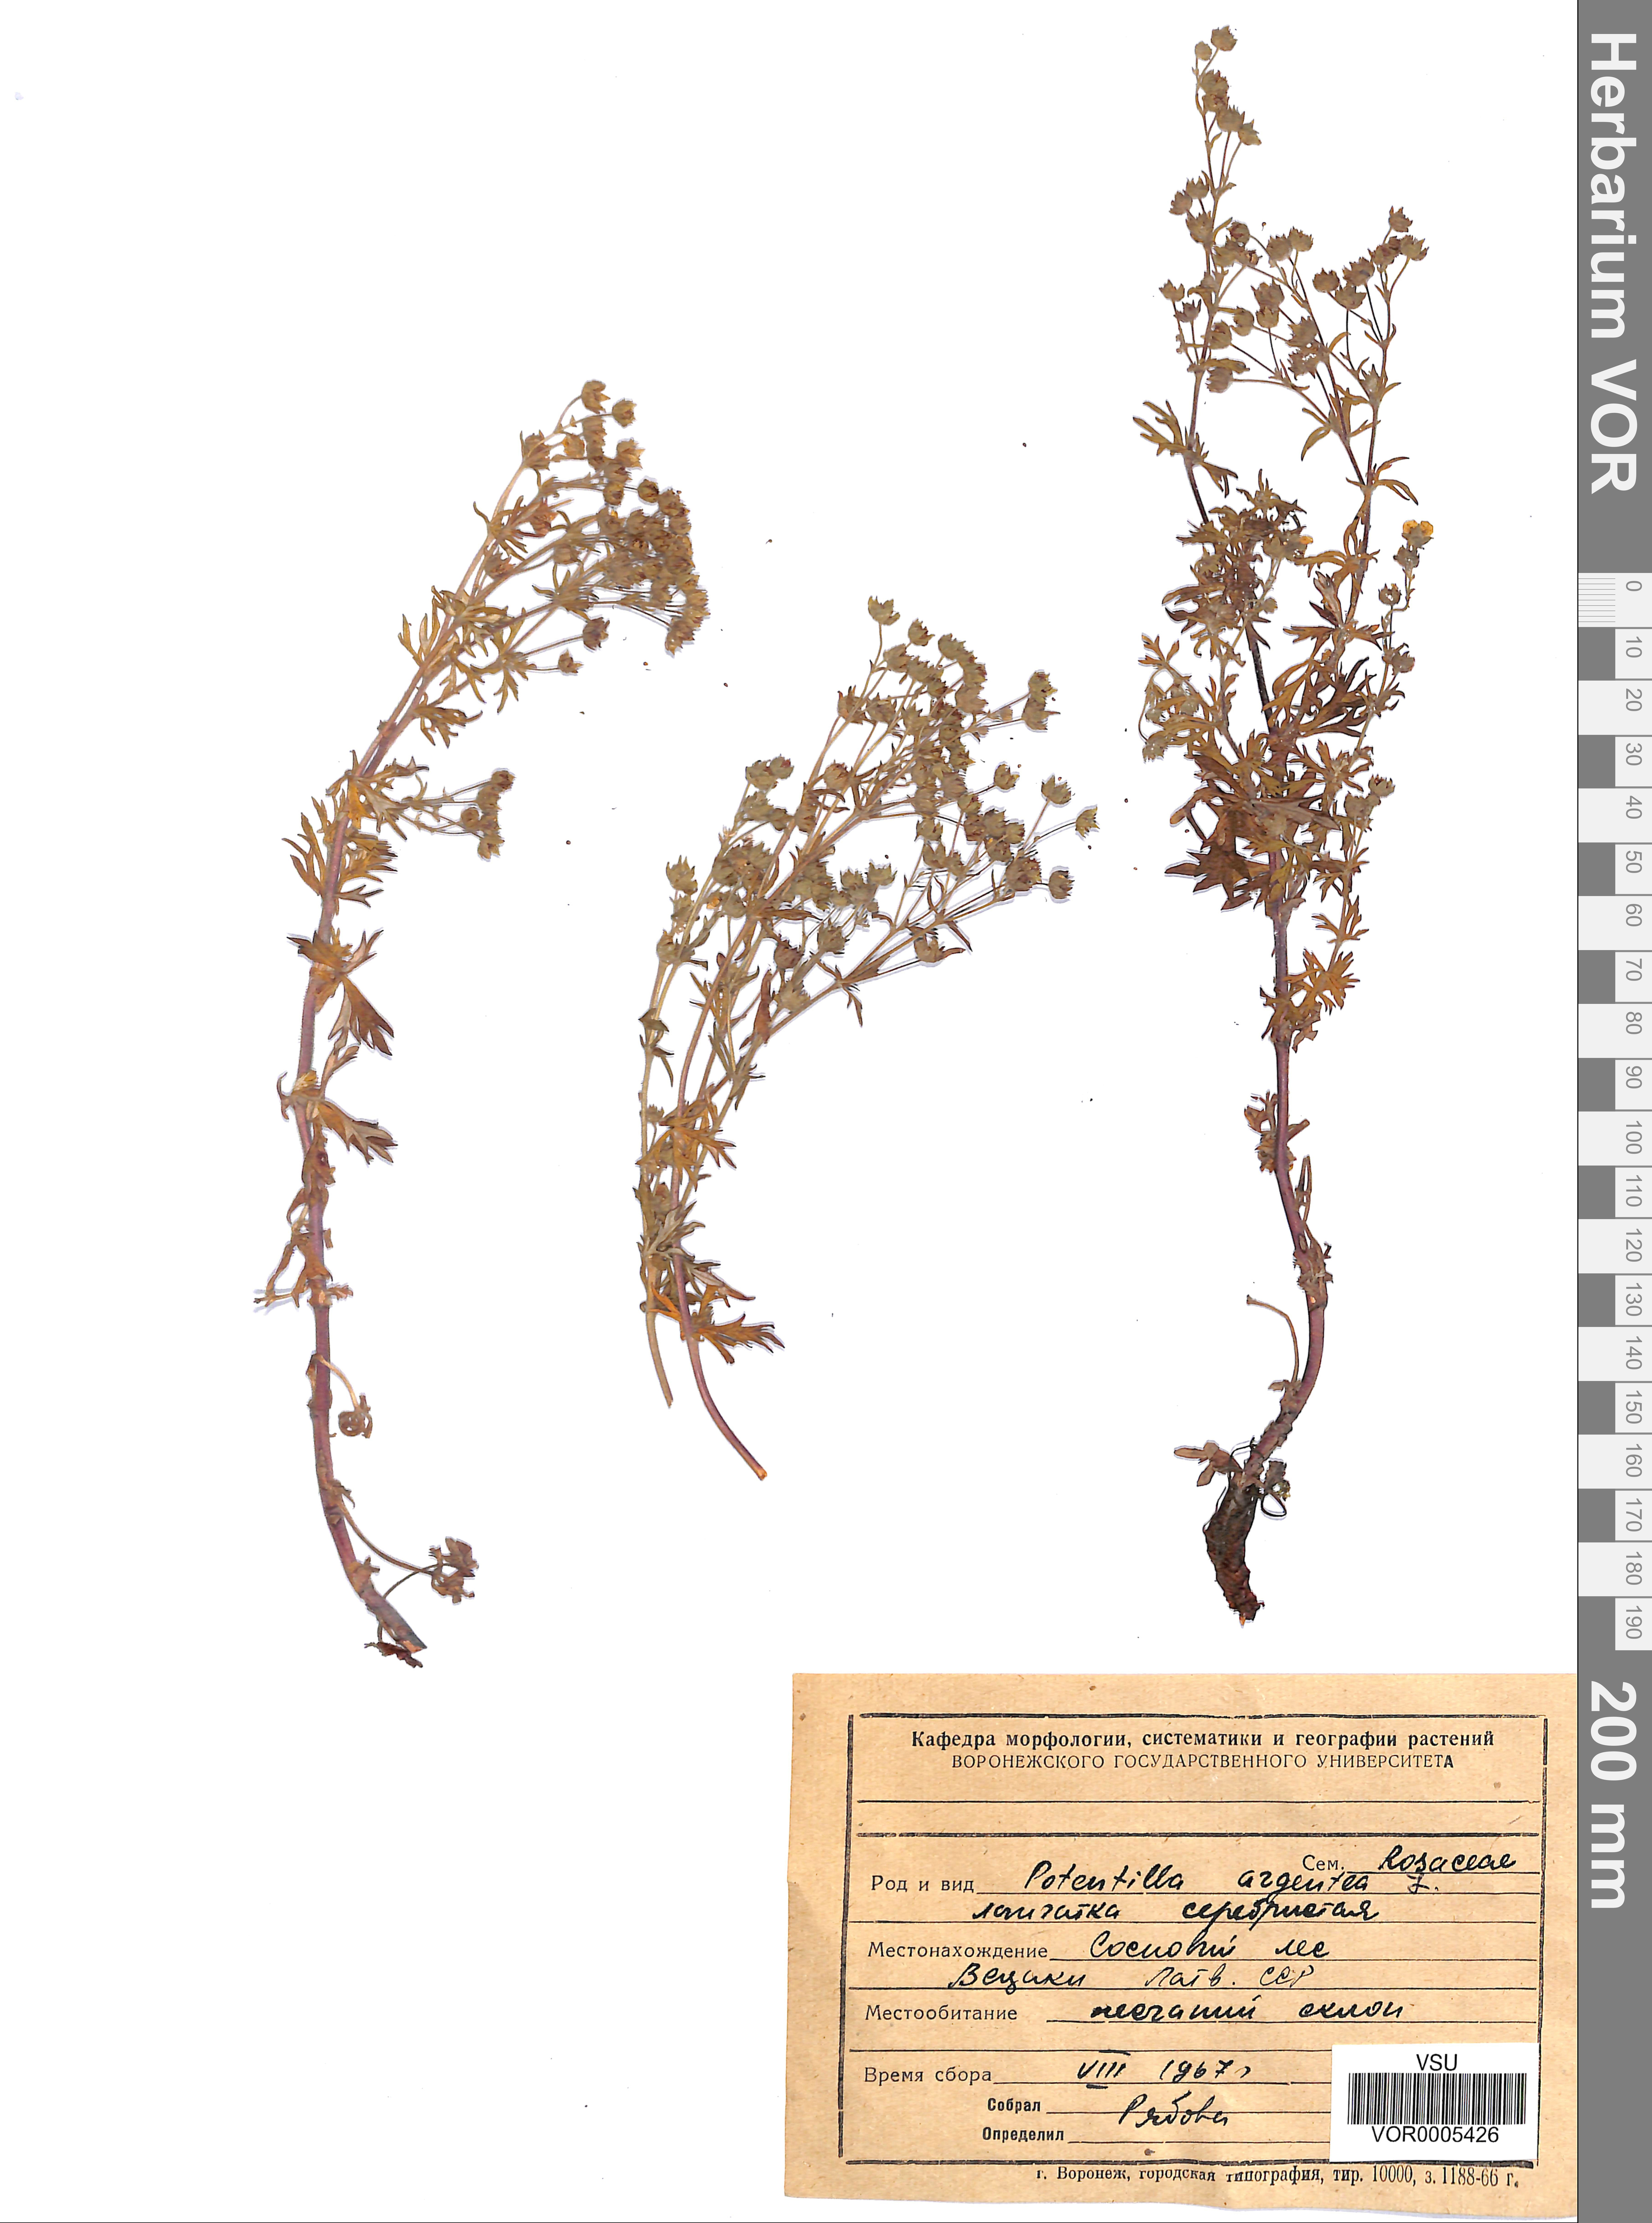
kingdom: Plantae
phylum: Tracheophyta
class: Magnoliopsida
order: Rosales
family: Rosaceae
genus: Potentilla
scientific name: Potentilla argentea
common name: Hoary cinquefoil
